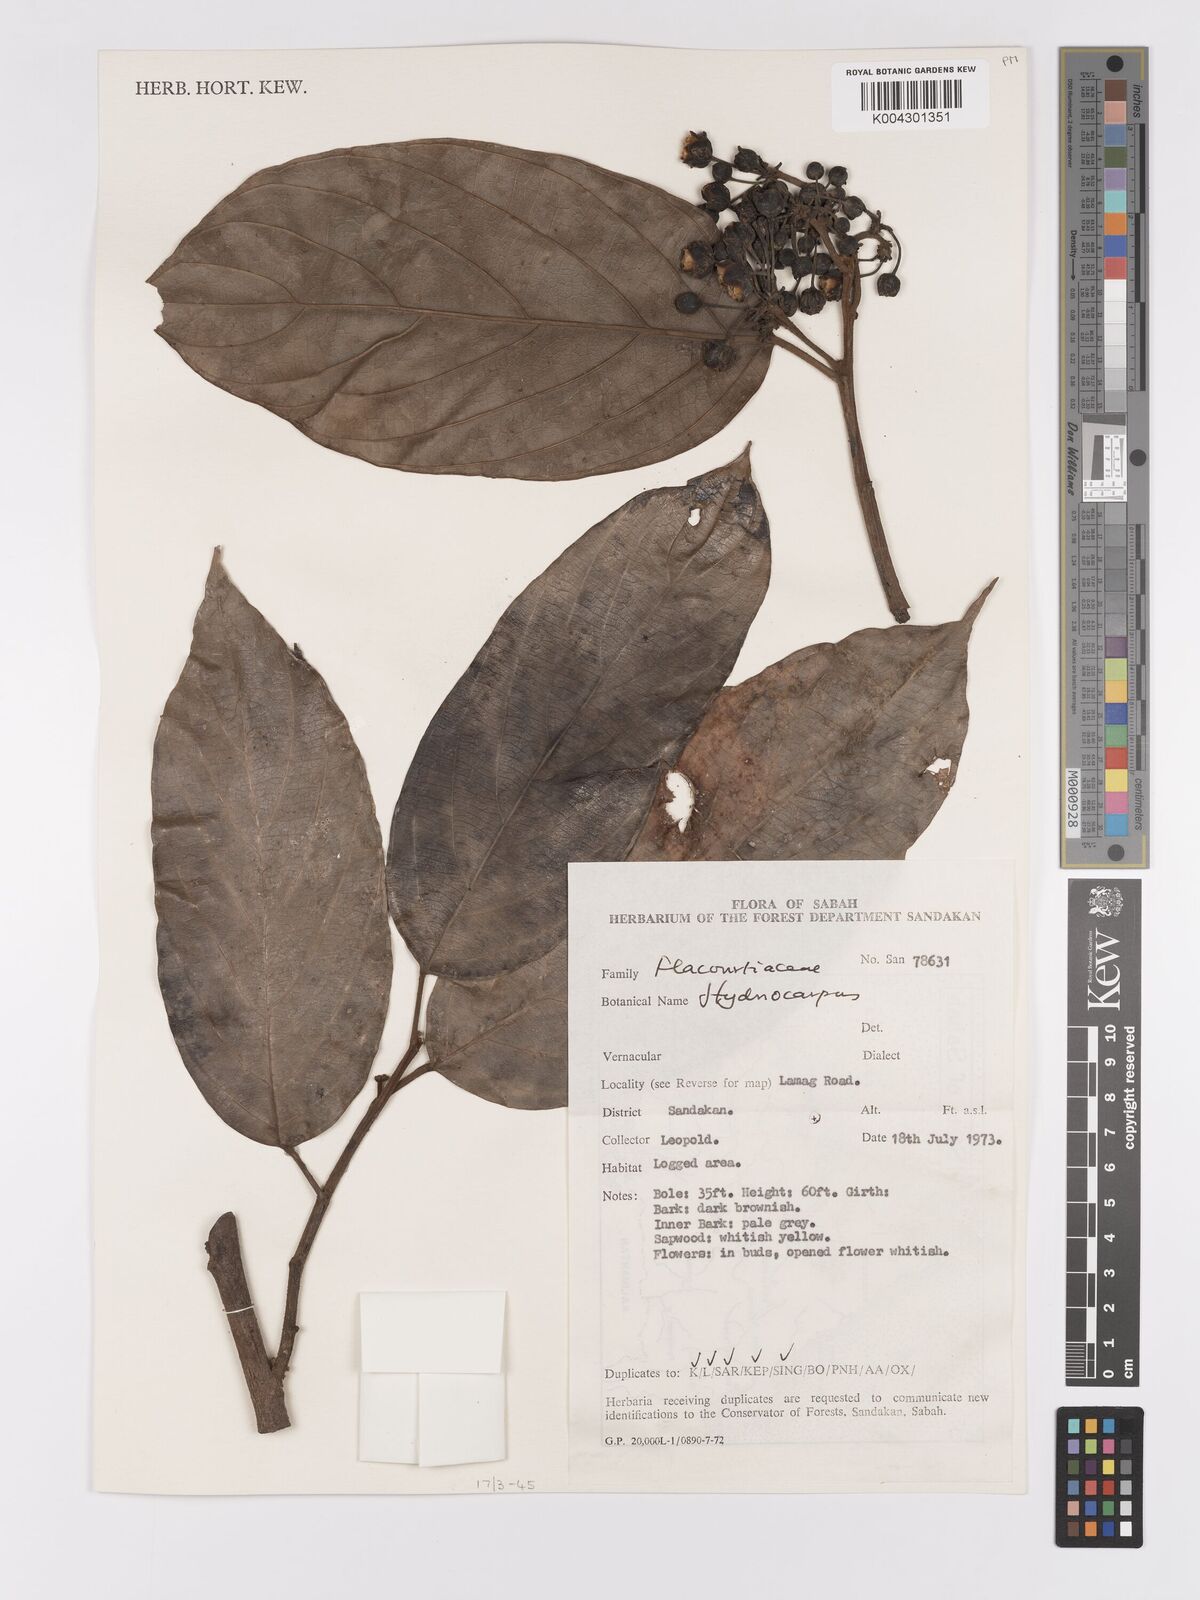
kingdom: Plantae
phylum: Tracheophyta
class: Magnoliopsida
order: Malpighiales
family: Achariaceae
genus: Hydnocarpus
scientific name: Hydnocarpus
